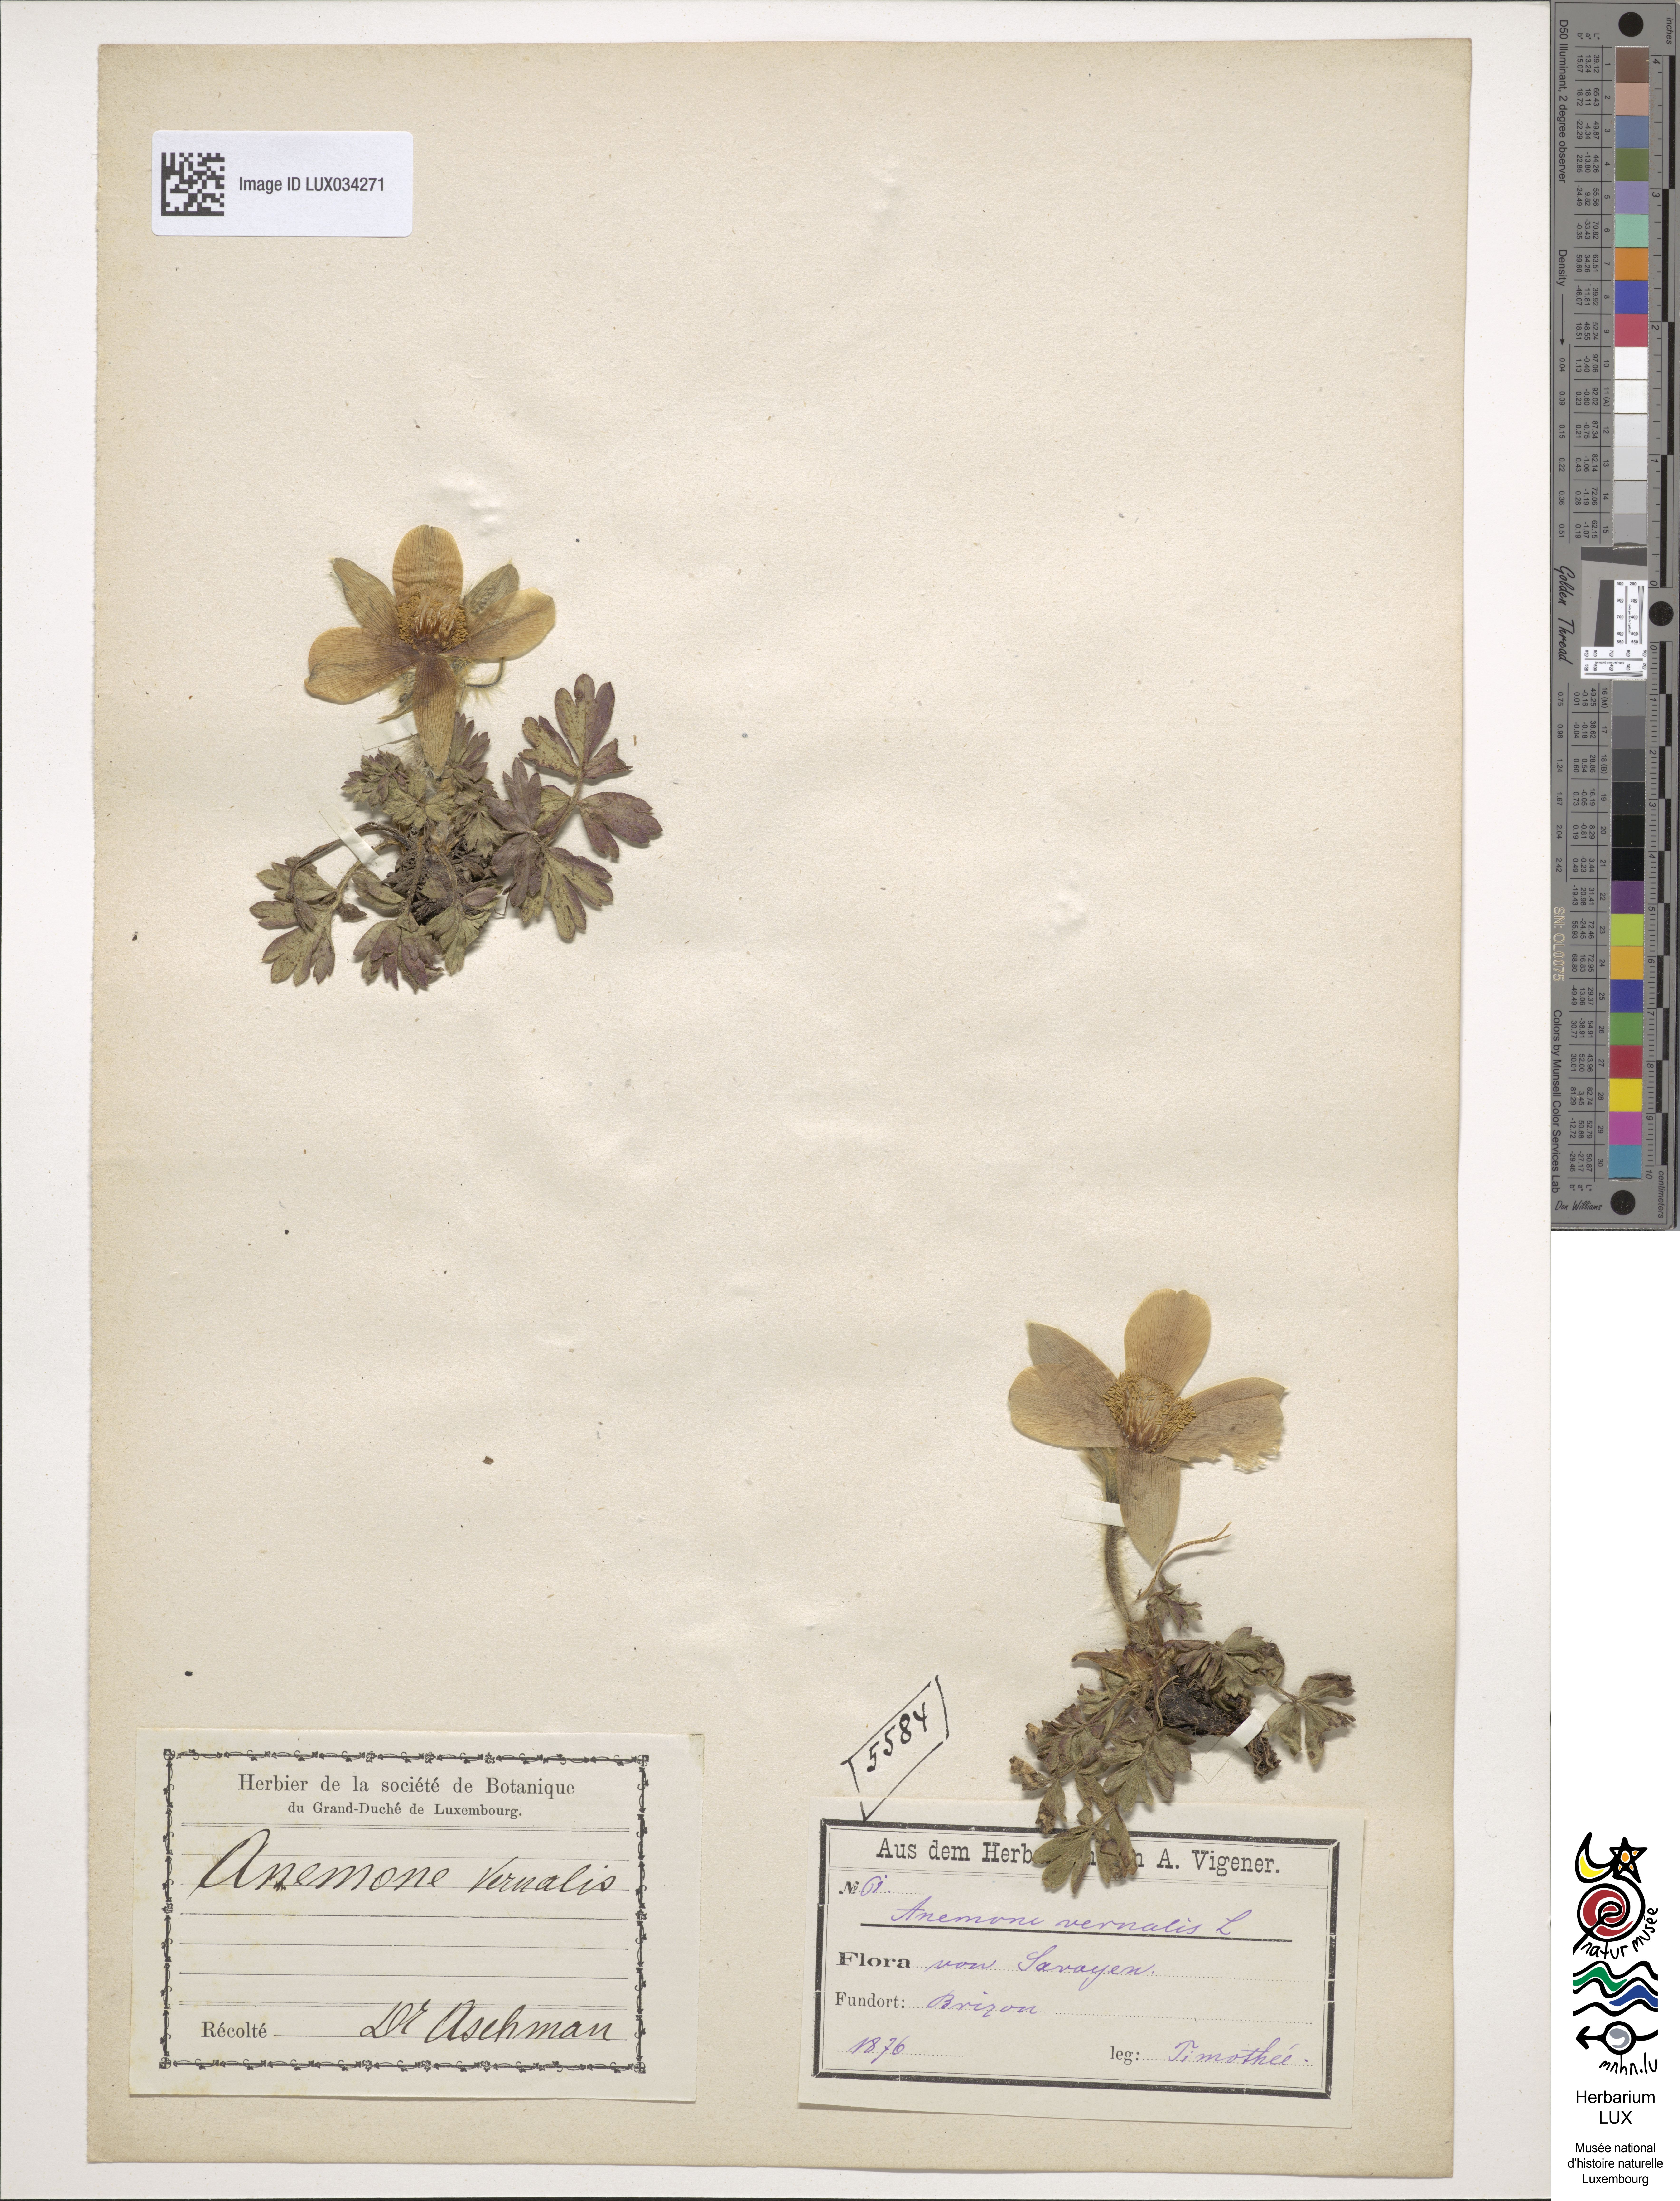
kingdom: Plantae
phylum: Tracheophyta
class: Magnoliopsida
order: Ranunculales
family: Ranunculaceae
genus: Pulsatilla
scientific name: Pulsatilla vernalis
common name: Spring pasque flower
